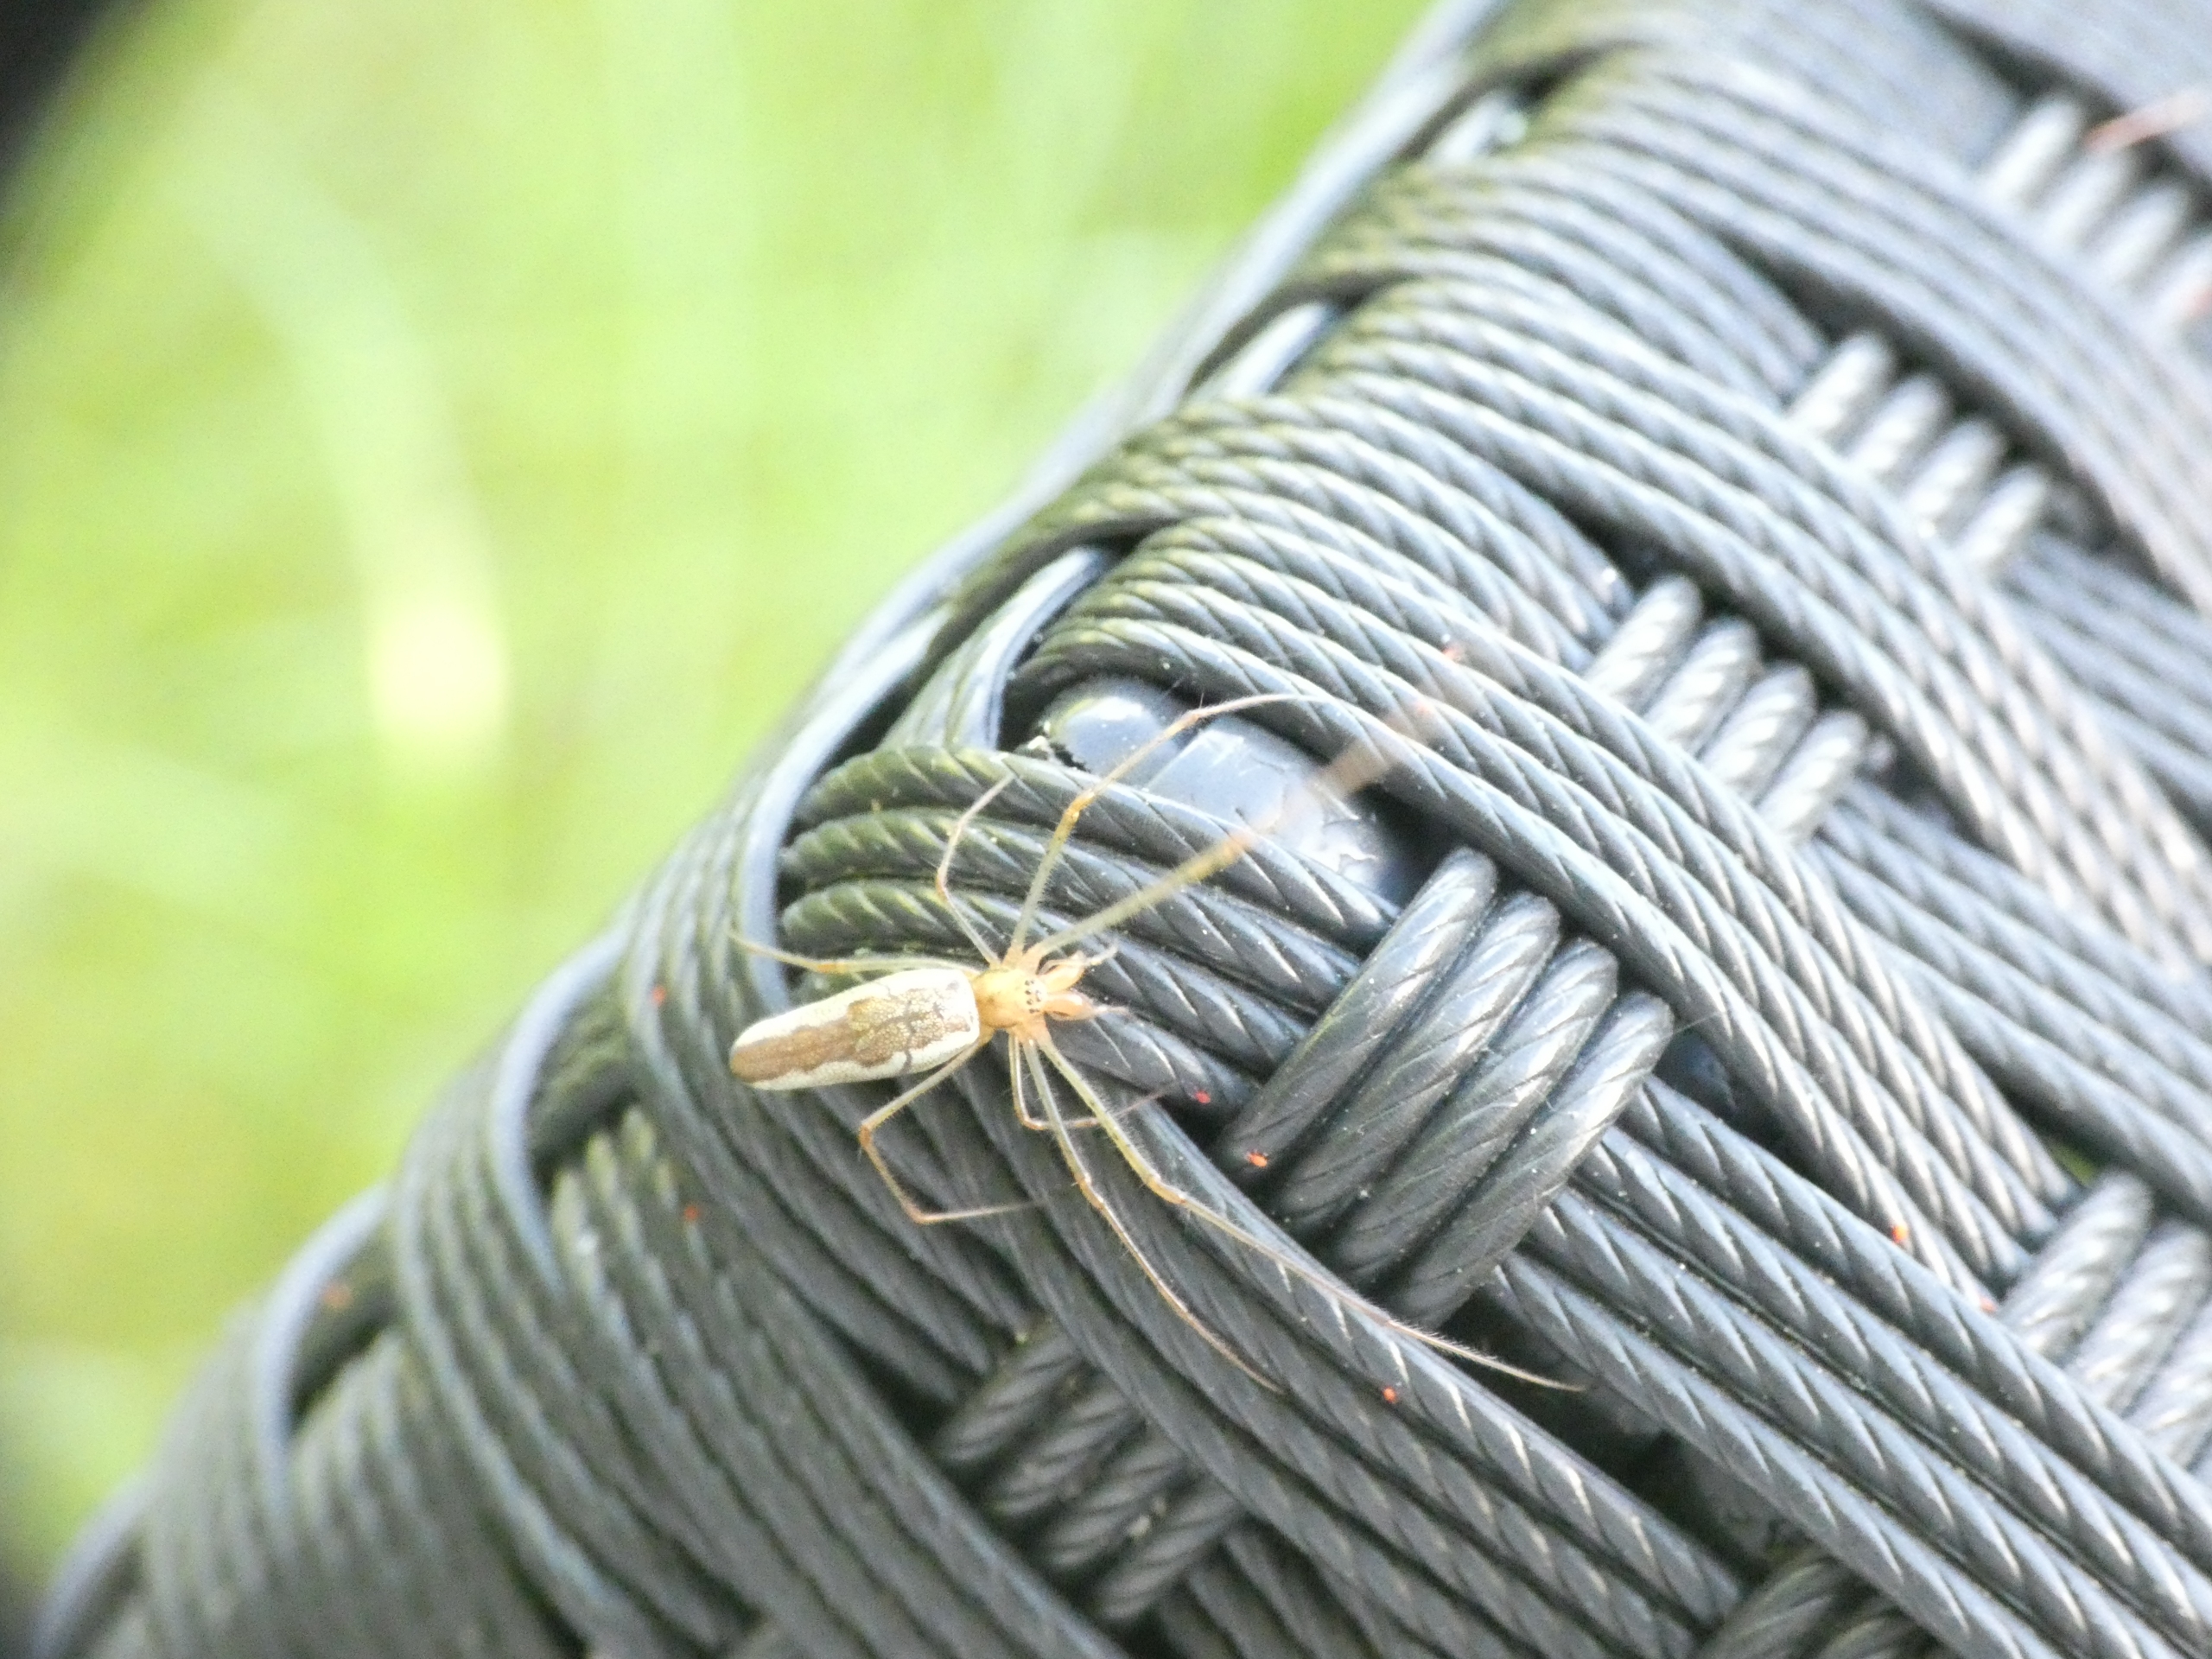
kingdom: Animalia
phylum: Arthropoda
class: Arachnida
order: Araneae
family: Tetragnathidae
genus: Tetragnatha
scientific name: Tetragnatha
